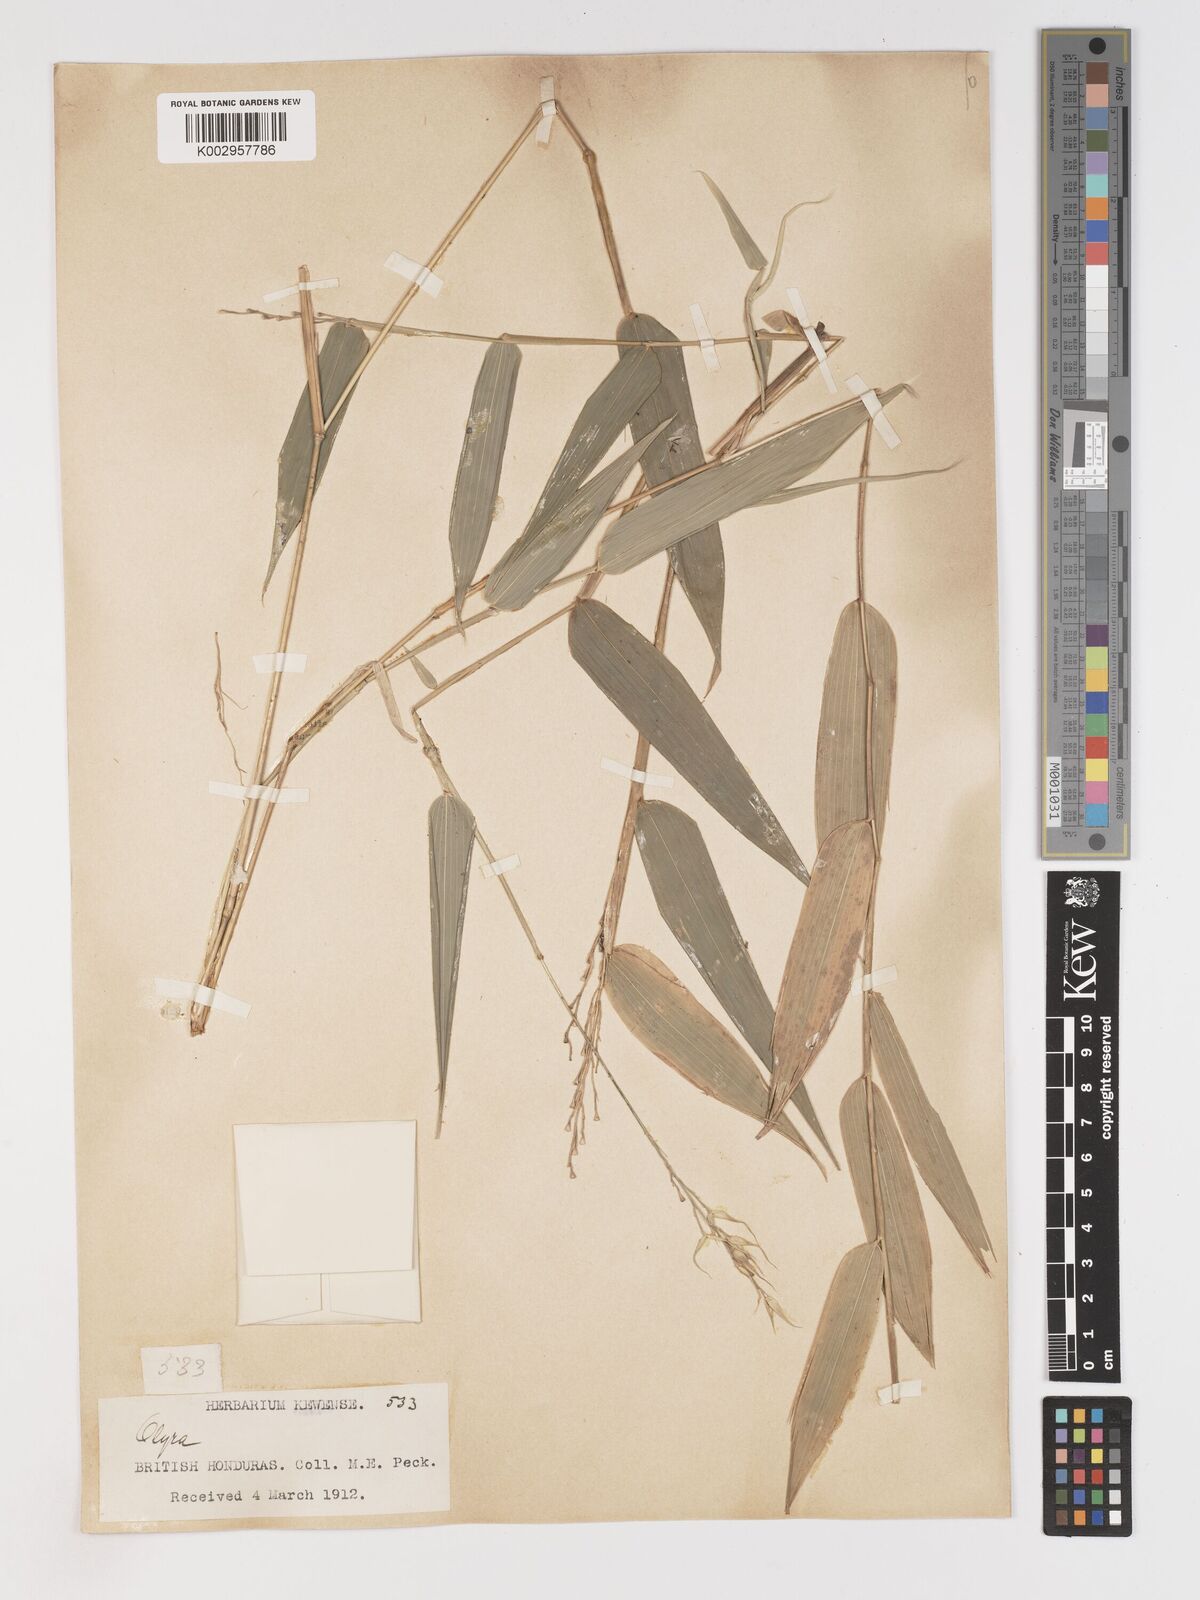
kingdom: Plantae
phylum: Tracheophyta
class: Liliopsida
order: Poales
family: Poaceae
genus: Olyra
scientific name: Olyra latifolia
